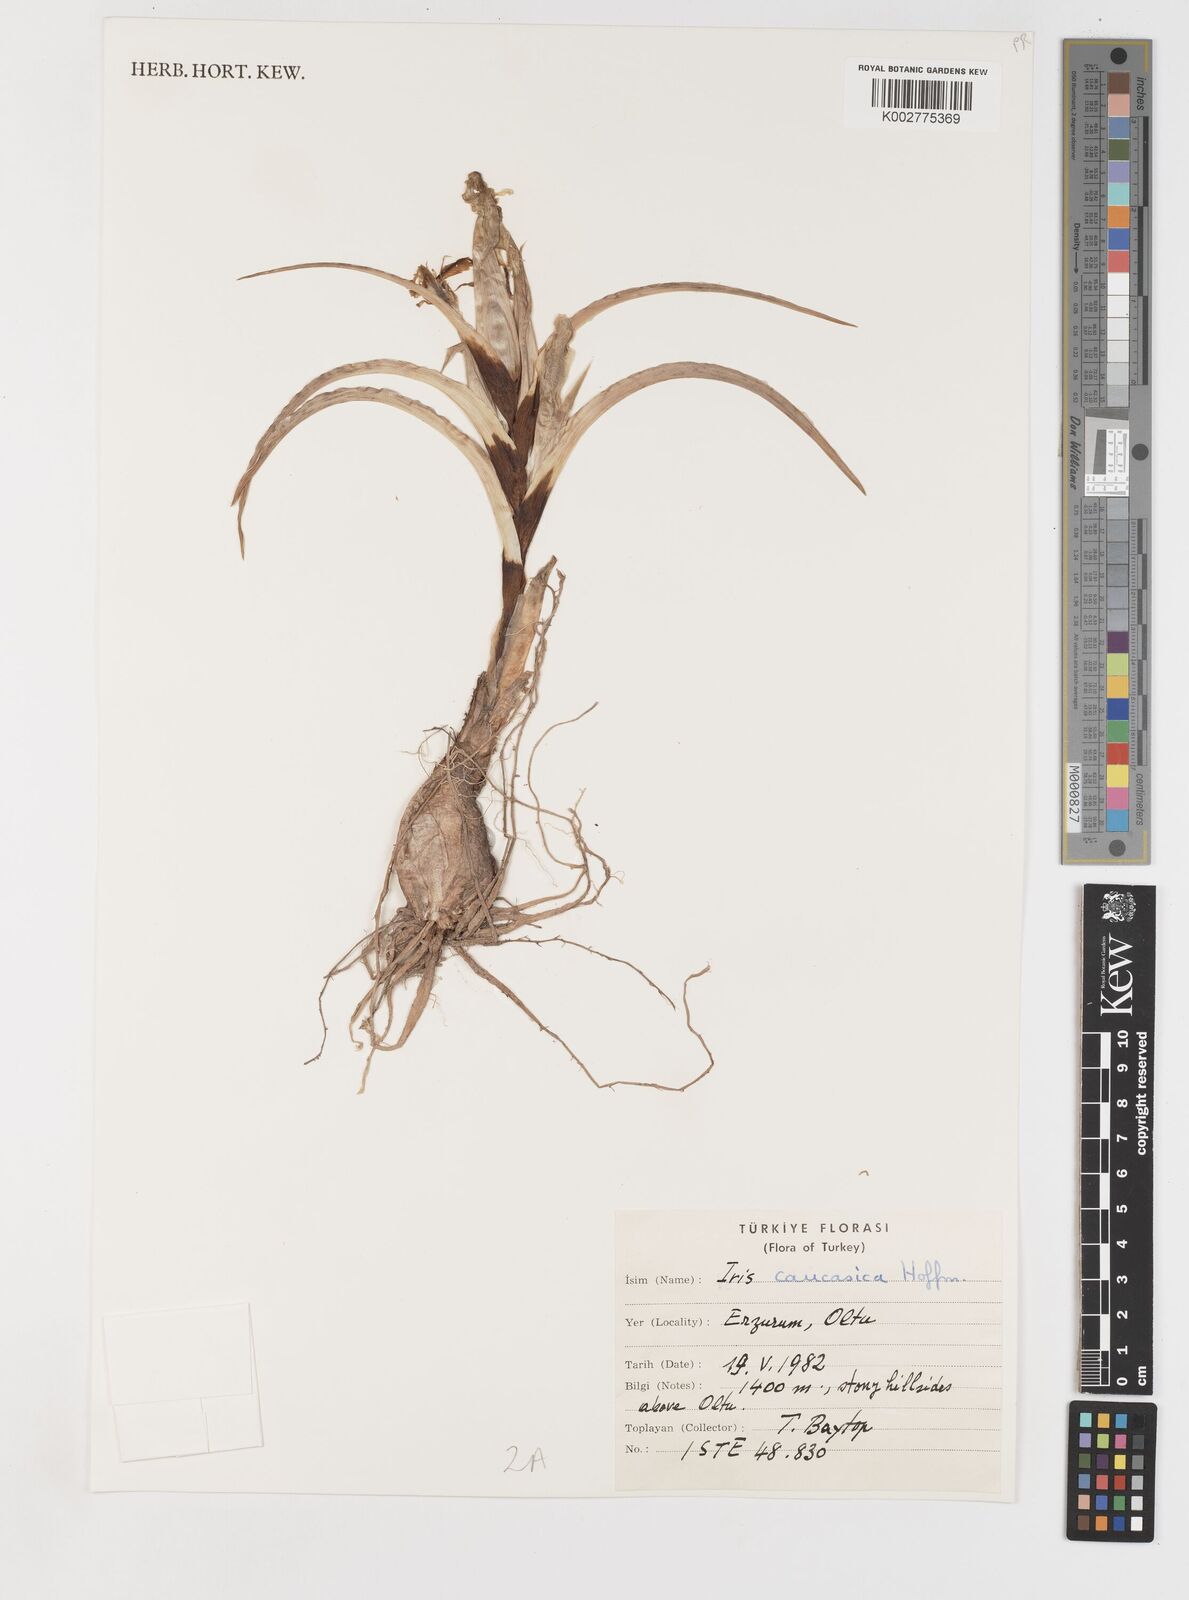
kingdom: Plantae
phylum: Tracheophyta
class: Liliopsida
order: Asparagales
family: Iridaceae
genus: Iris
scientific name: Iris caucasica
